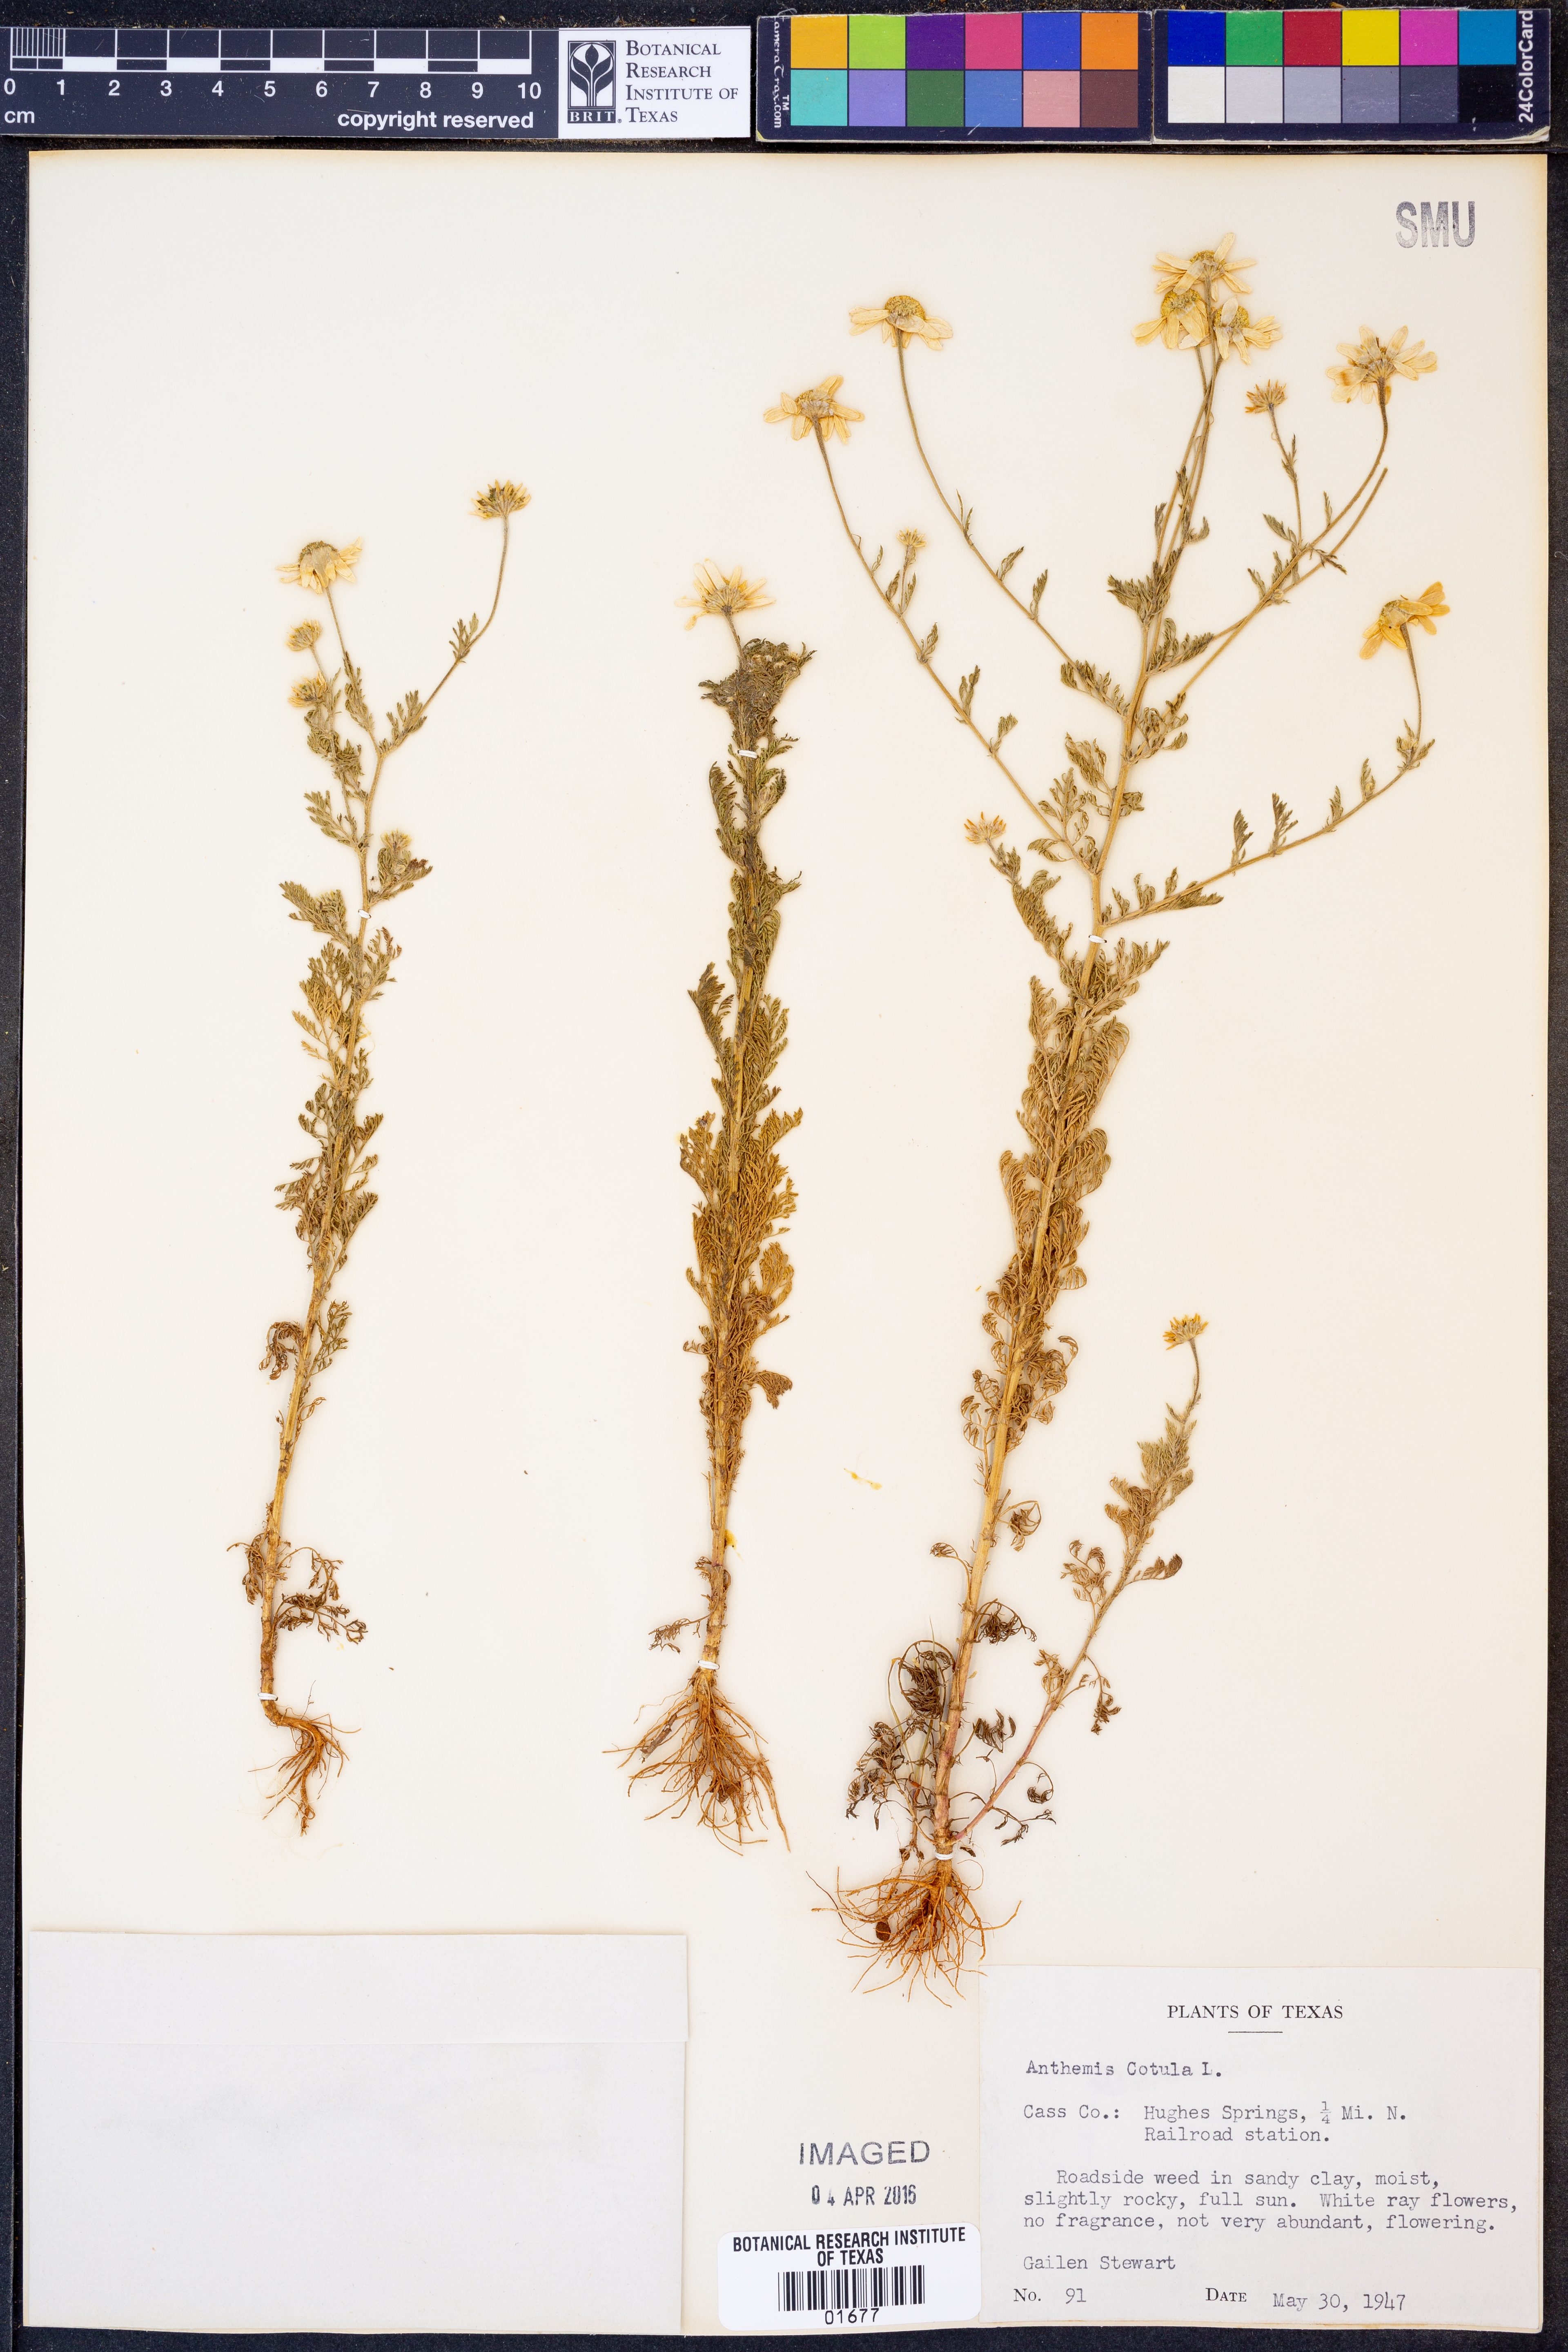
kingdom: Plantae
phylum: Tracheophyta
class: Magnoliopsida
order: Asterales
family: Asteraceae
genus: Anthemis
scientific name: Anthemis cotula
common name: Stinking chamomile
